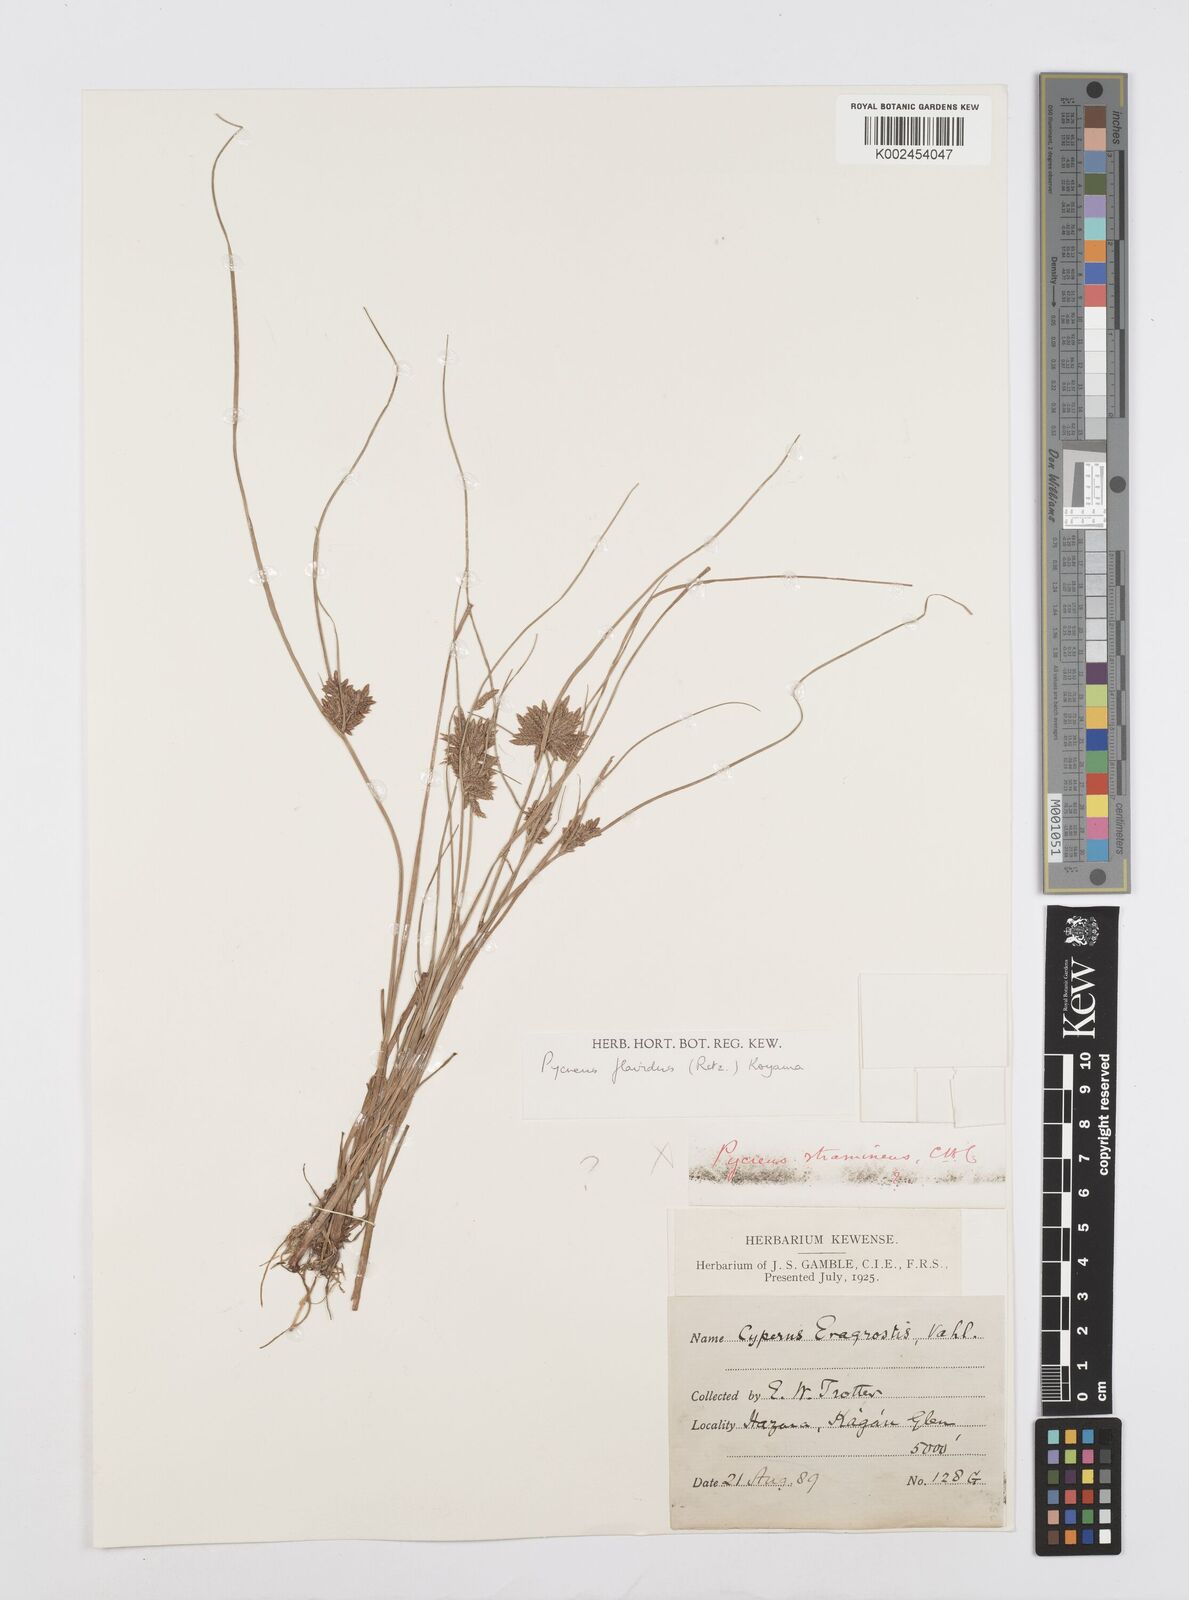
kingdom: Plantae
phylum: Tracheophyta
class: Liliopsida
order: Poales
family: Cyperaceae
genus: Cyperus
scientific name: Cyperus flavidus
